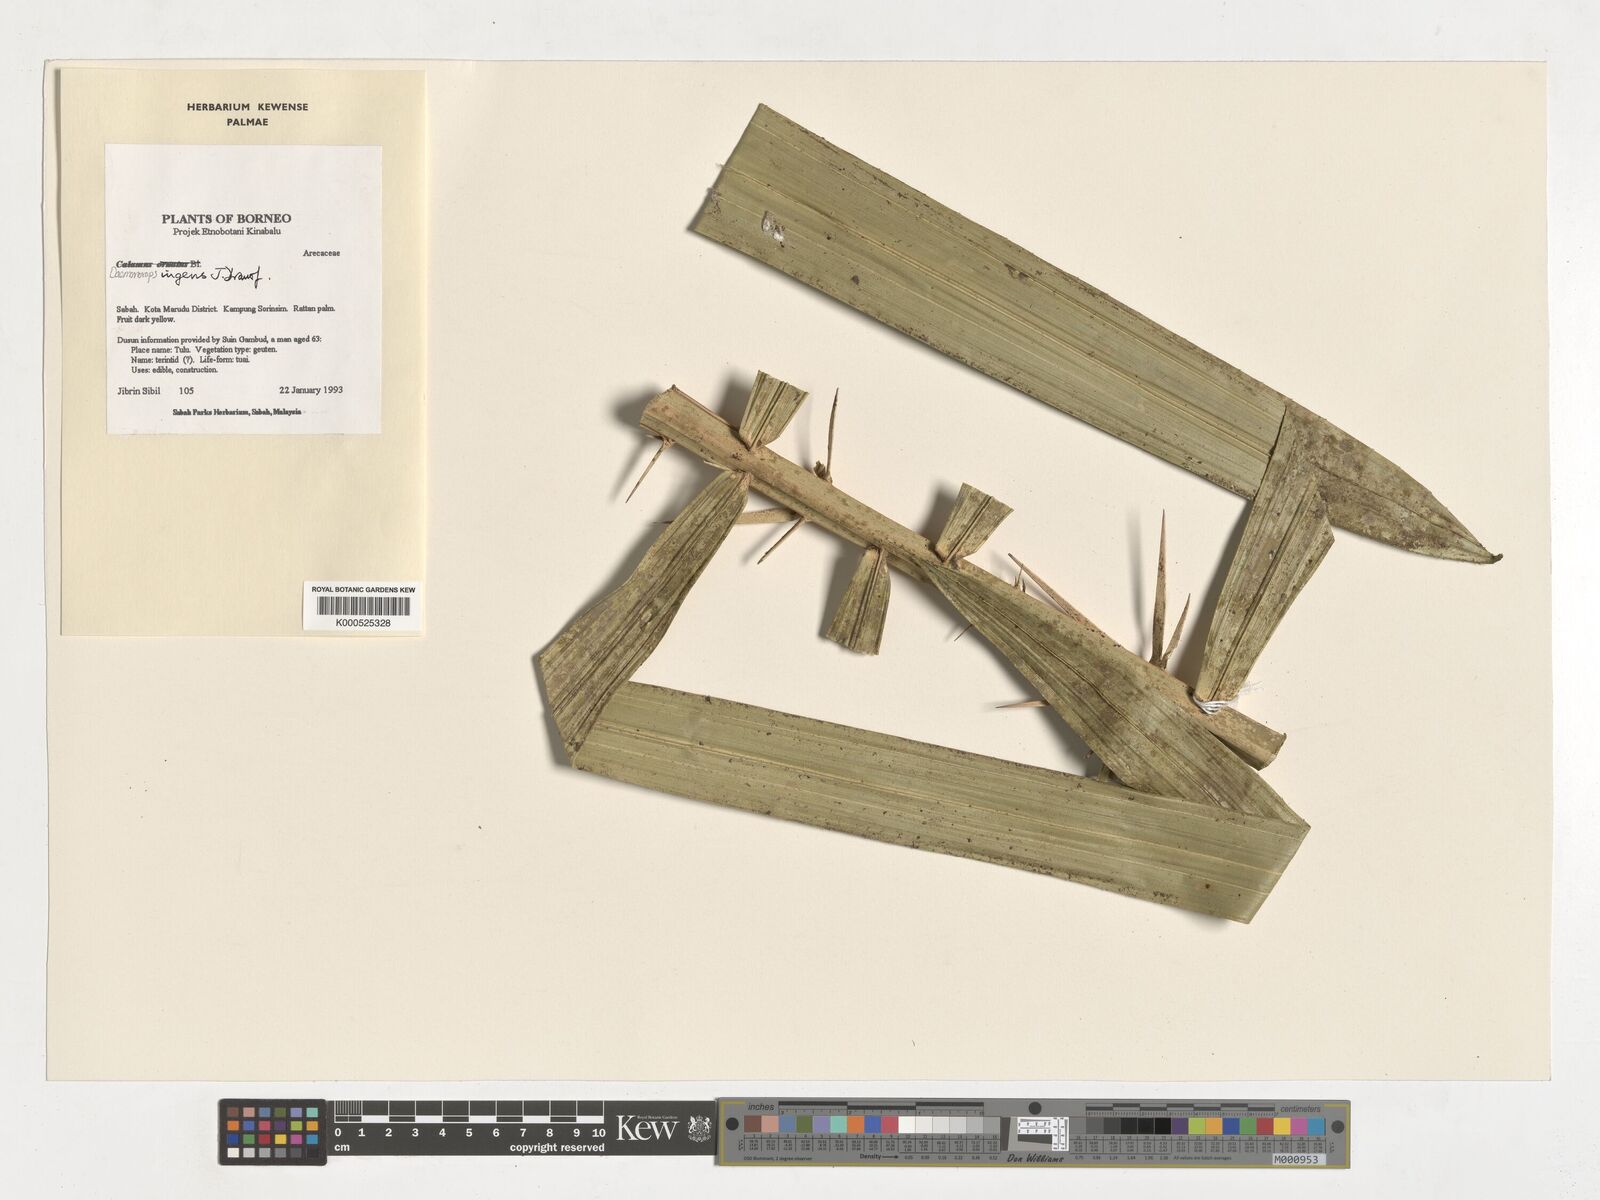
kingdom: Plantae
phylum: Tracheophyta
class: Liliopsida
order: Arecales
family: Arecaceae
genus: Calamus
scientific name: Calamus ingens
